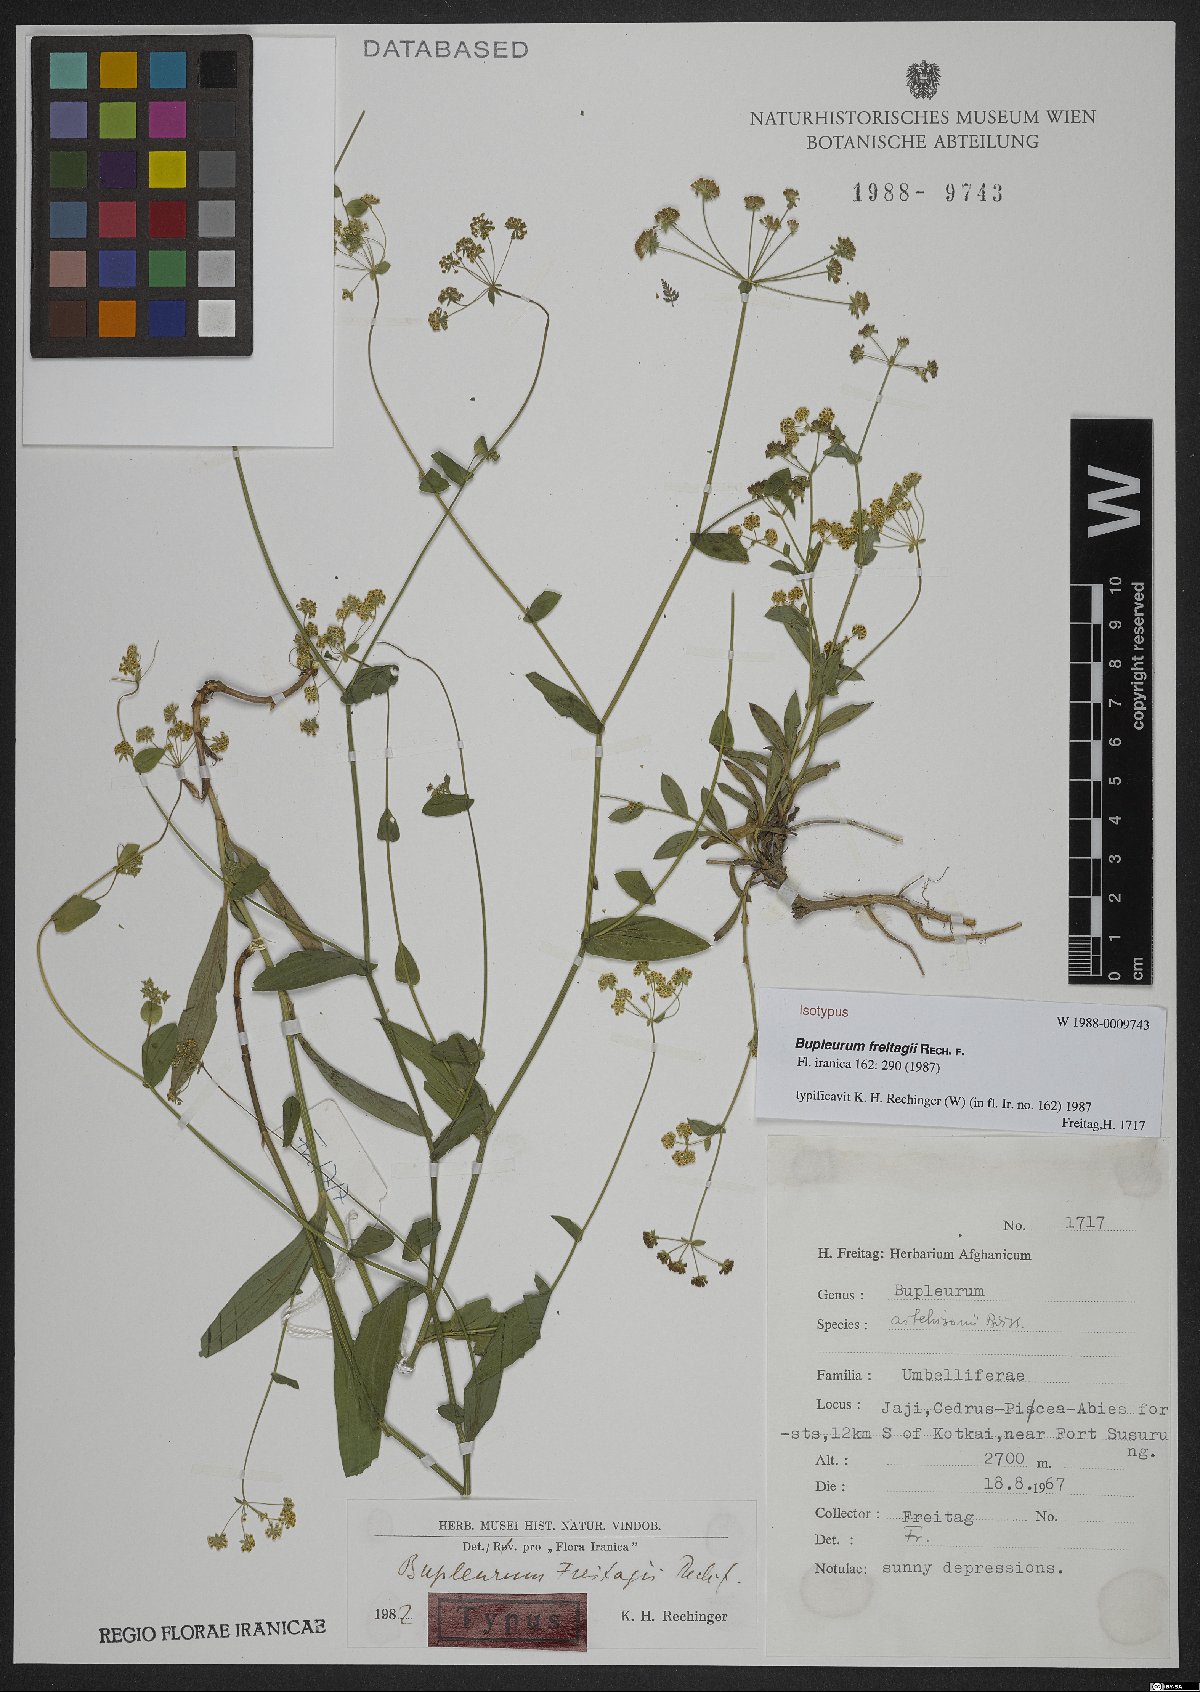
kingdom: Plantae
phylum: Tracheophyta
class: Magnoliopsida
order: Apiales
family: Apiaceae
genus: Bupleurum
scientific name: Bupleurum freitagii
